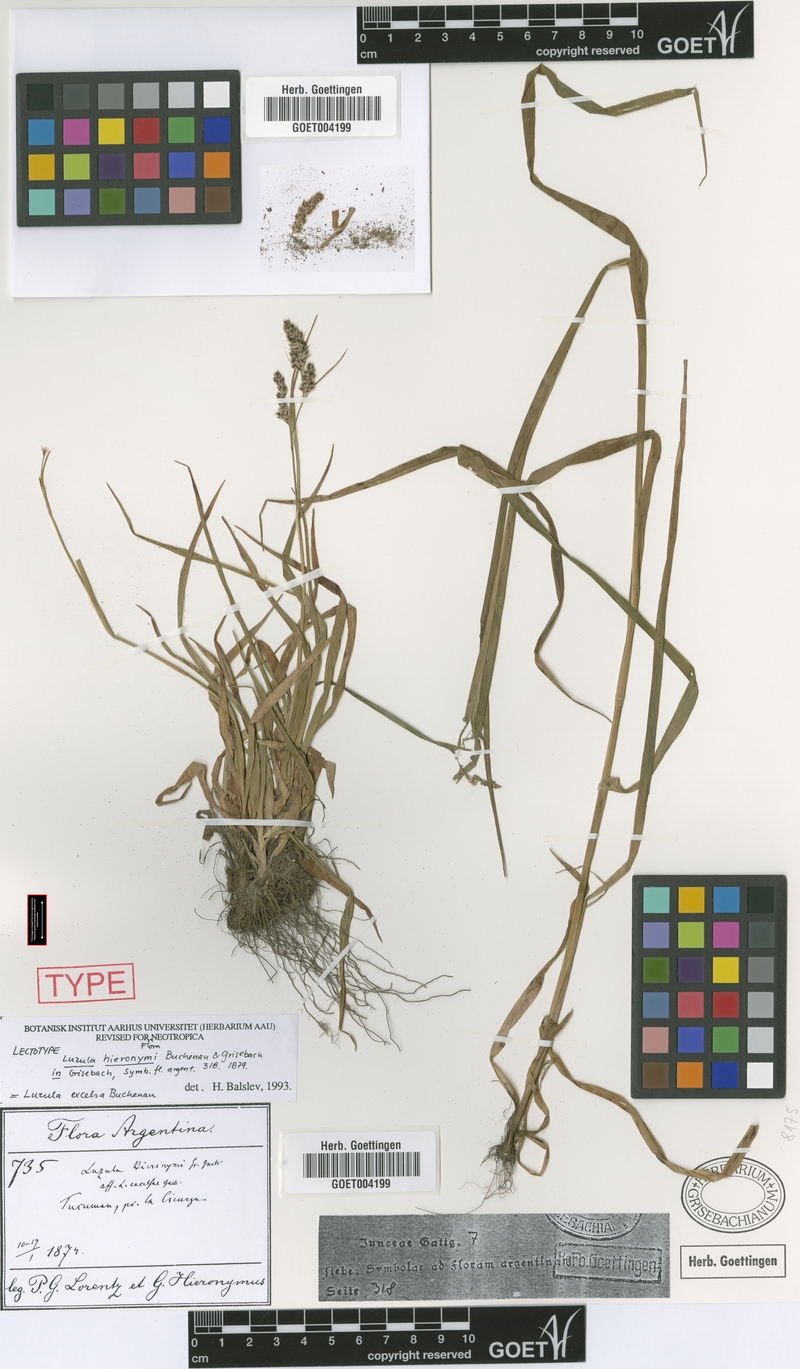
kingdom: Plantae
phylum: Tracheophyta
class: Liliopsida
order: Poales
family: Juncaceae
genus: Luzula
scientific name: Luzula excelsa
